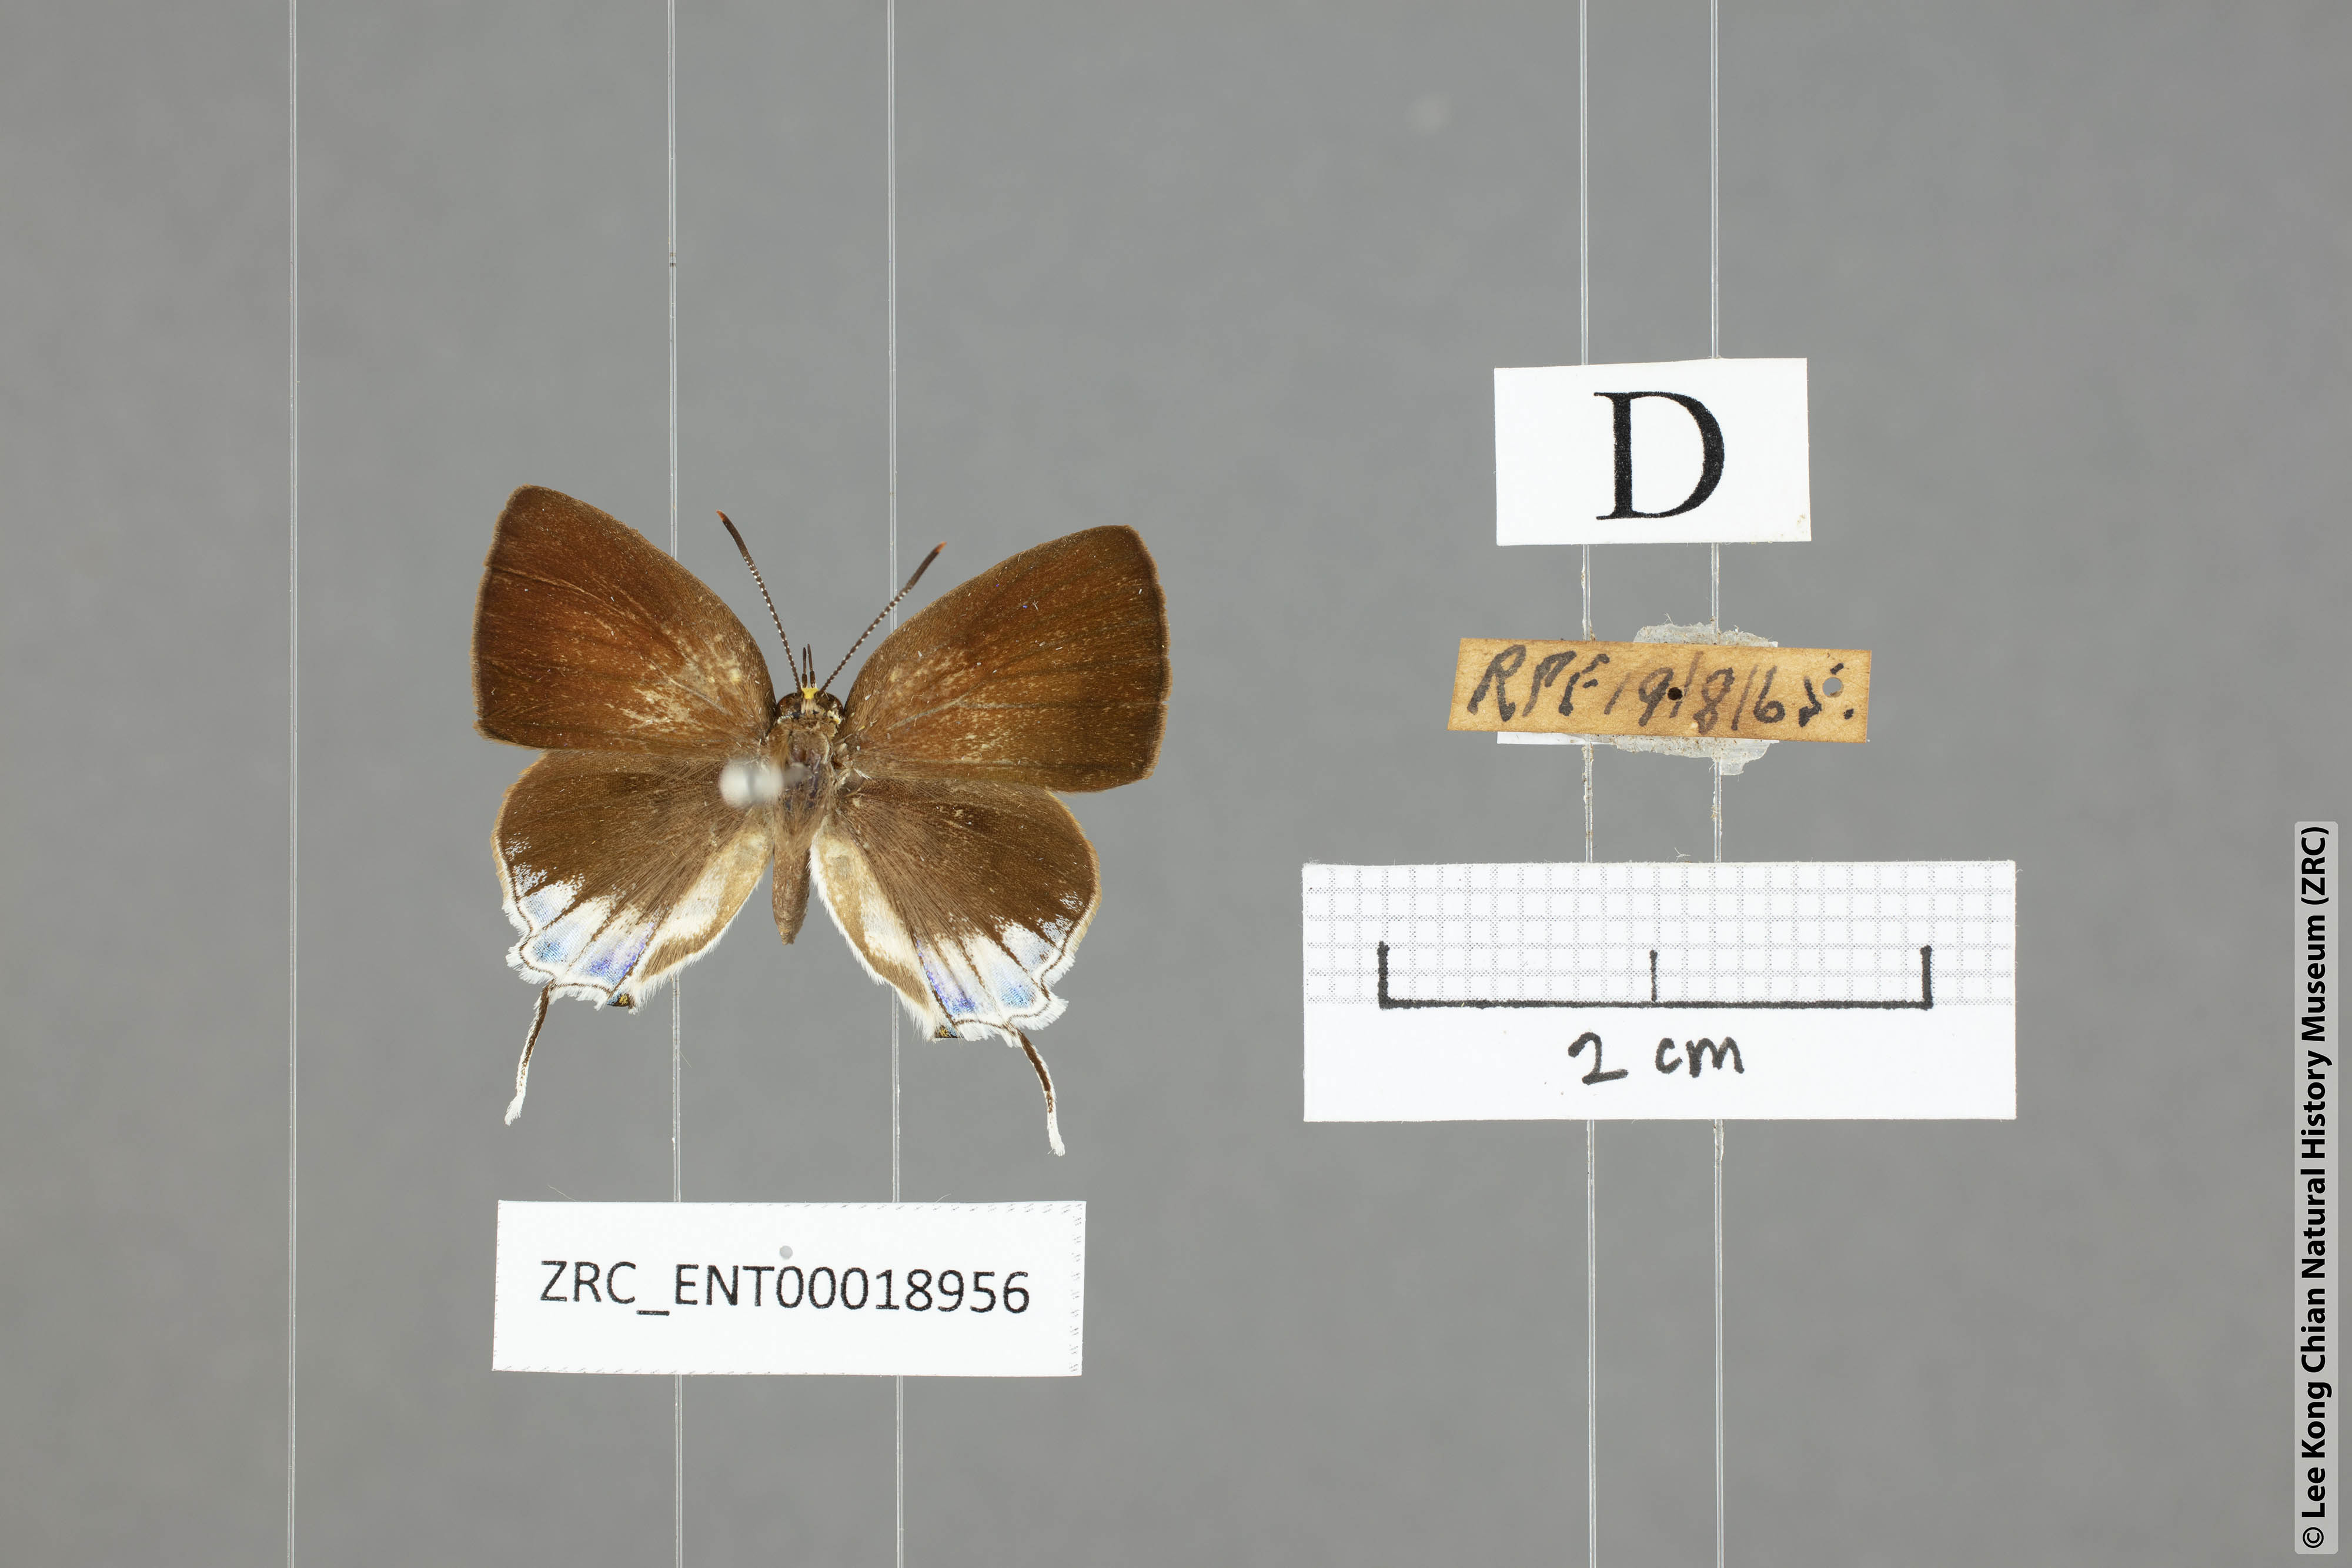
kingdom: Animalia
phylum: Arthropoda
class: Insecta
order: Lepidoptera
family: Lycaenidae
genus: Araotes
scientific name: Araotes lapithis
